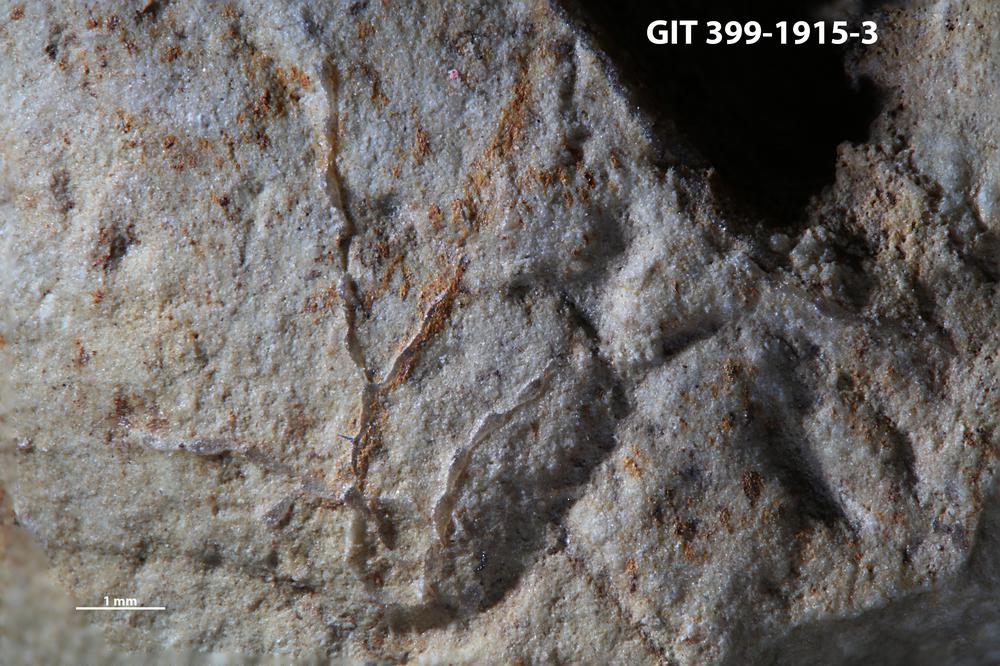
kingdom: Animalia
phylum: Bryozoa
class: Stenolaemata
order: Cyclostomatida
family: Corynotrypidae
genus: Corynotrypa
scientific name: Corynotrypa
